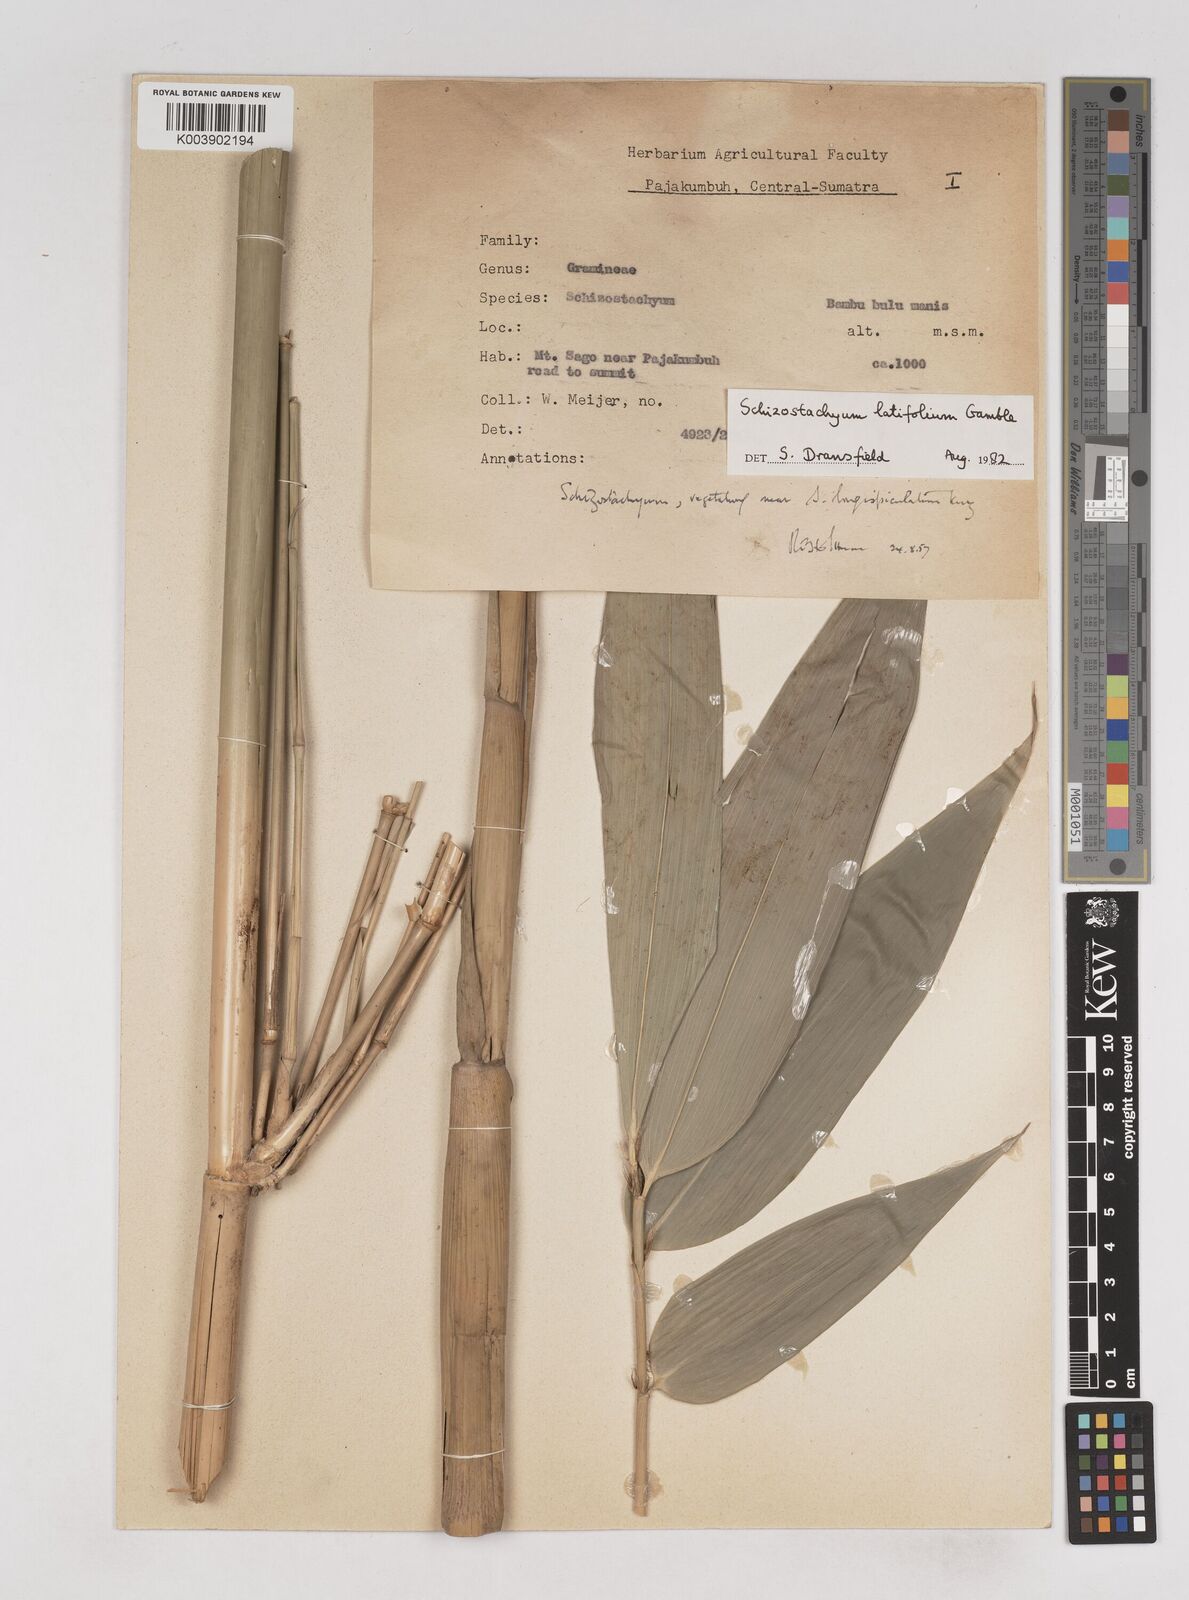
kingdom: Plantae
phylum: Tracheophyta
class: Liliopsida
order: Poales
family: Poaceae
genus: Schizostachyum
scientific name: Schizostachyum latifolium
